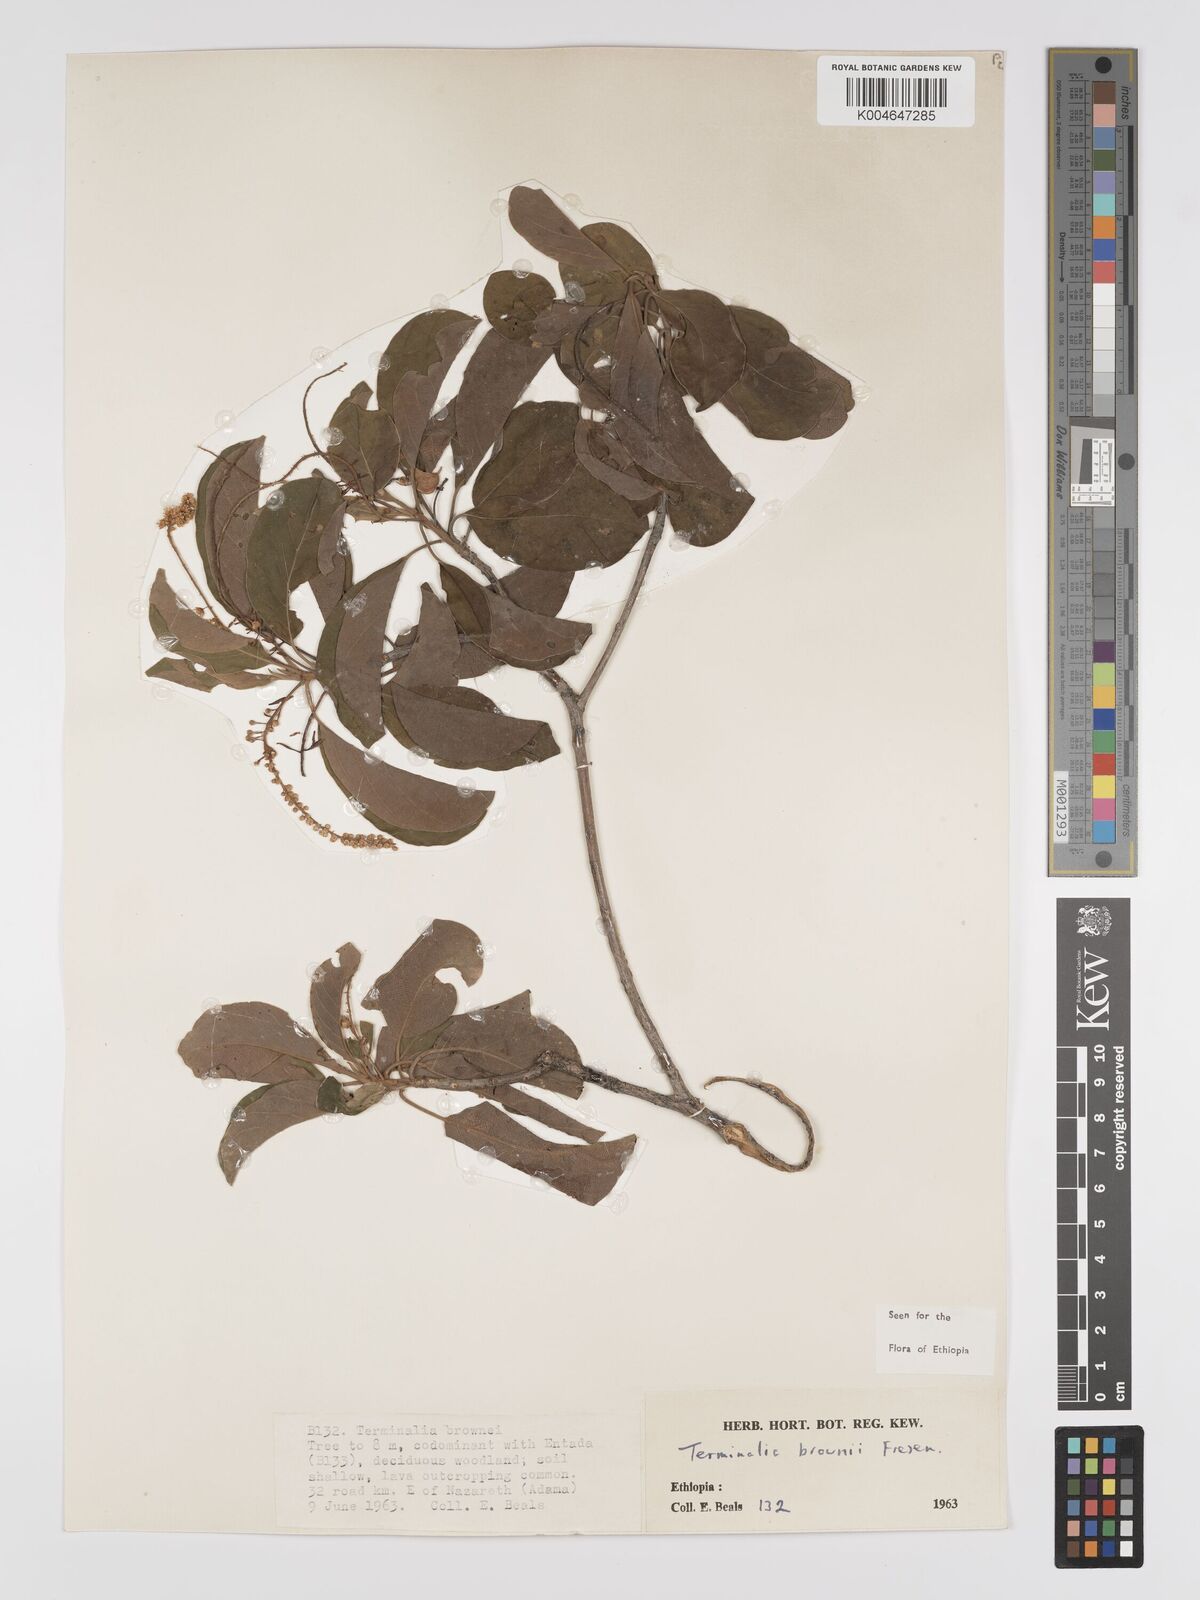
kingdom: Plantae
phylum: Tracheophyta
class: Magnoliopsida
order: Myrtales
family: Combretaceae
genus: Terminalia
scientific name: Terminalia brownii
